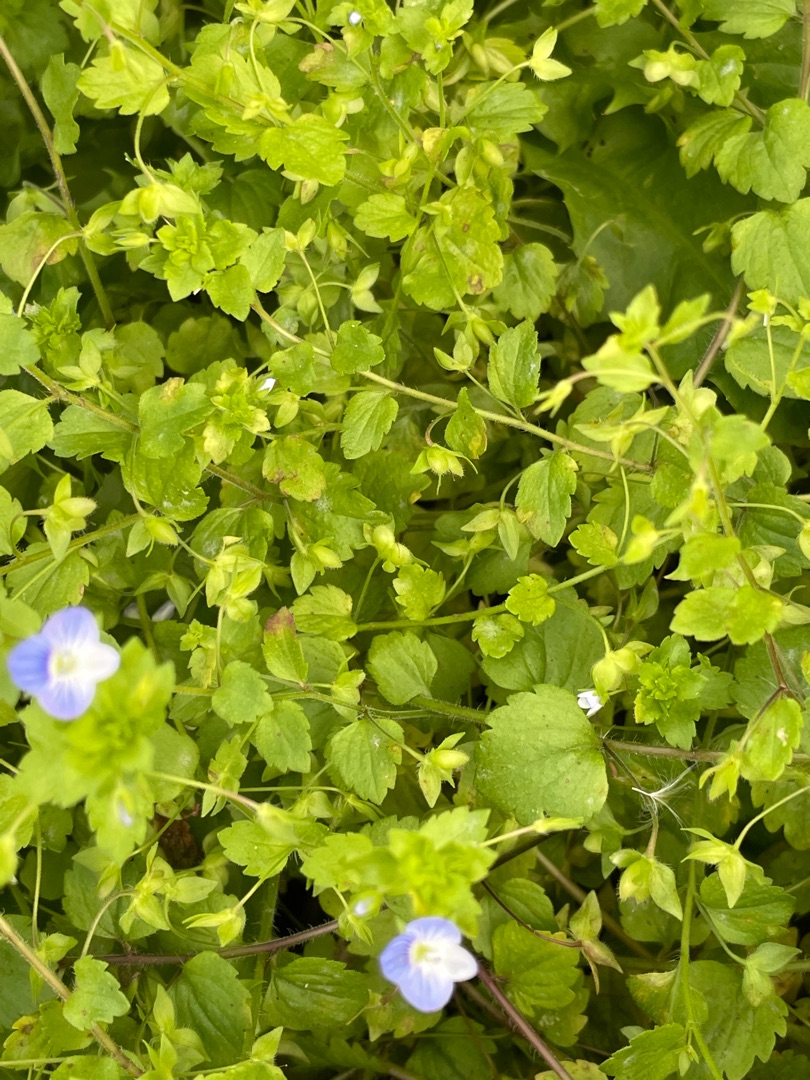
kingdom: Plantae
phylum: Tracheophyta
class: Magnoliopsida
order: Lamiales
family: Plantaginaceae
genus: Veronica
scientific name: Veronica persica
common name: Storkronet ærenpris
